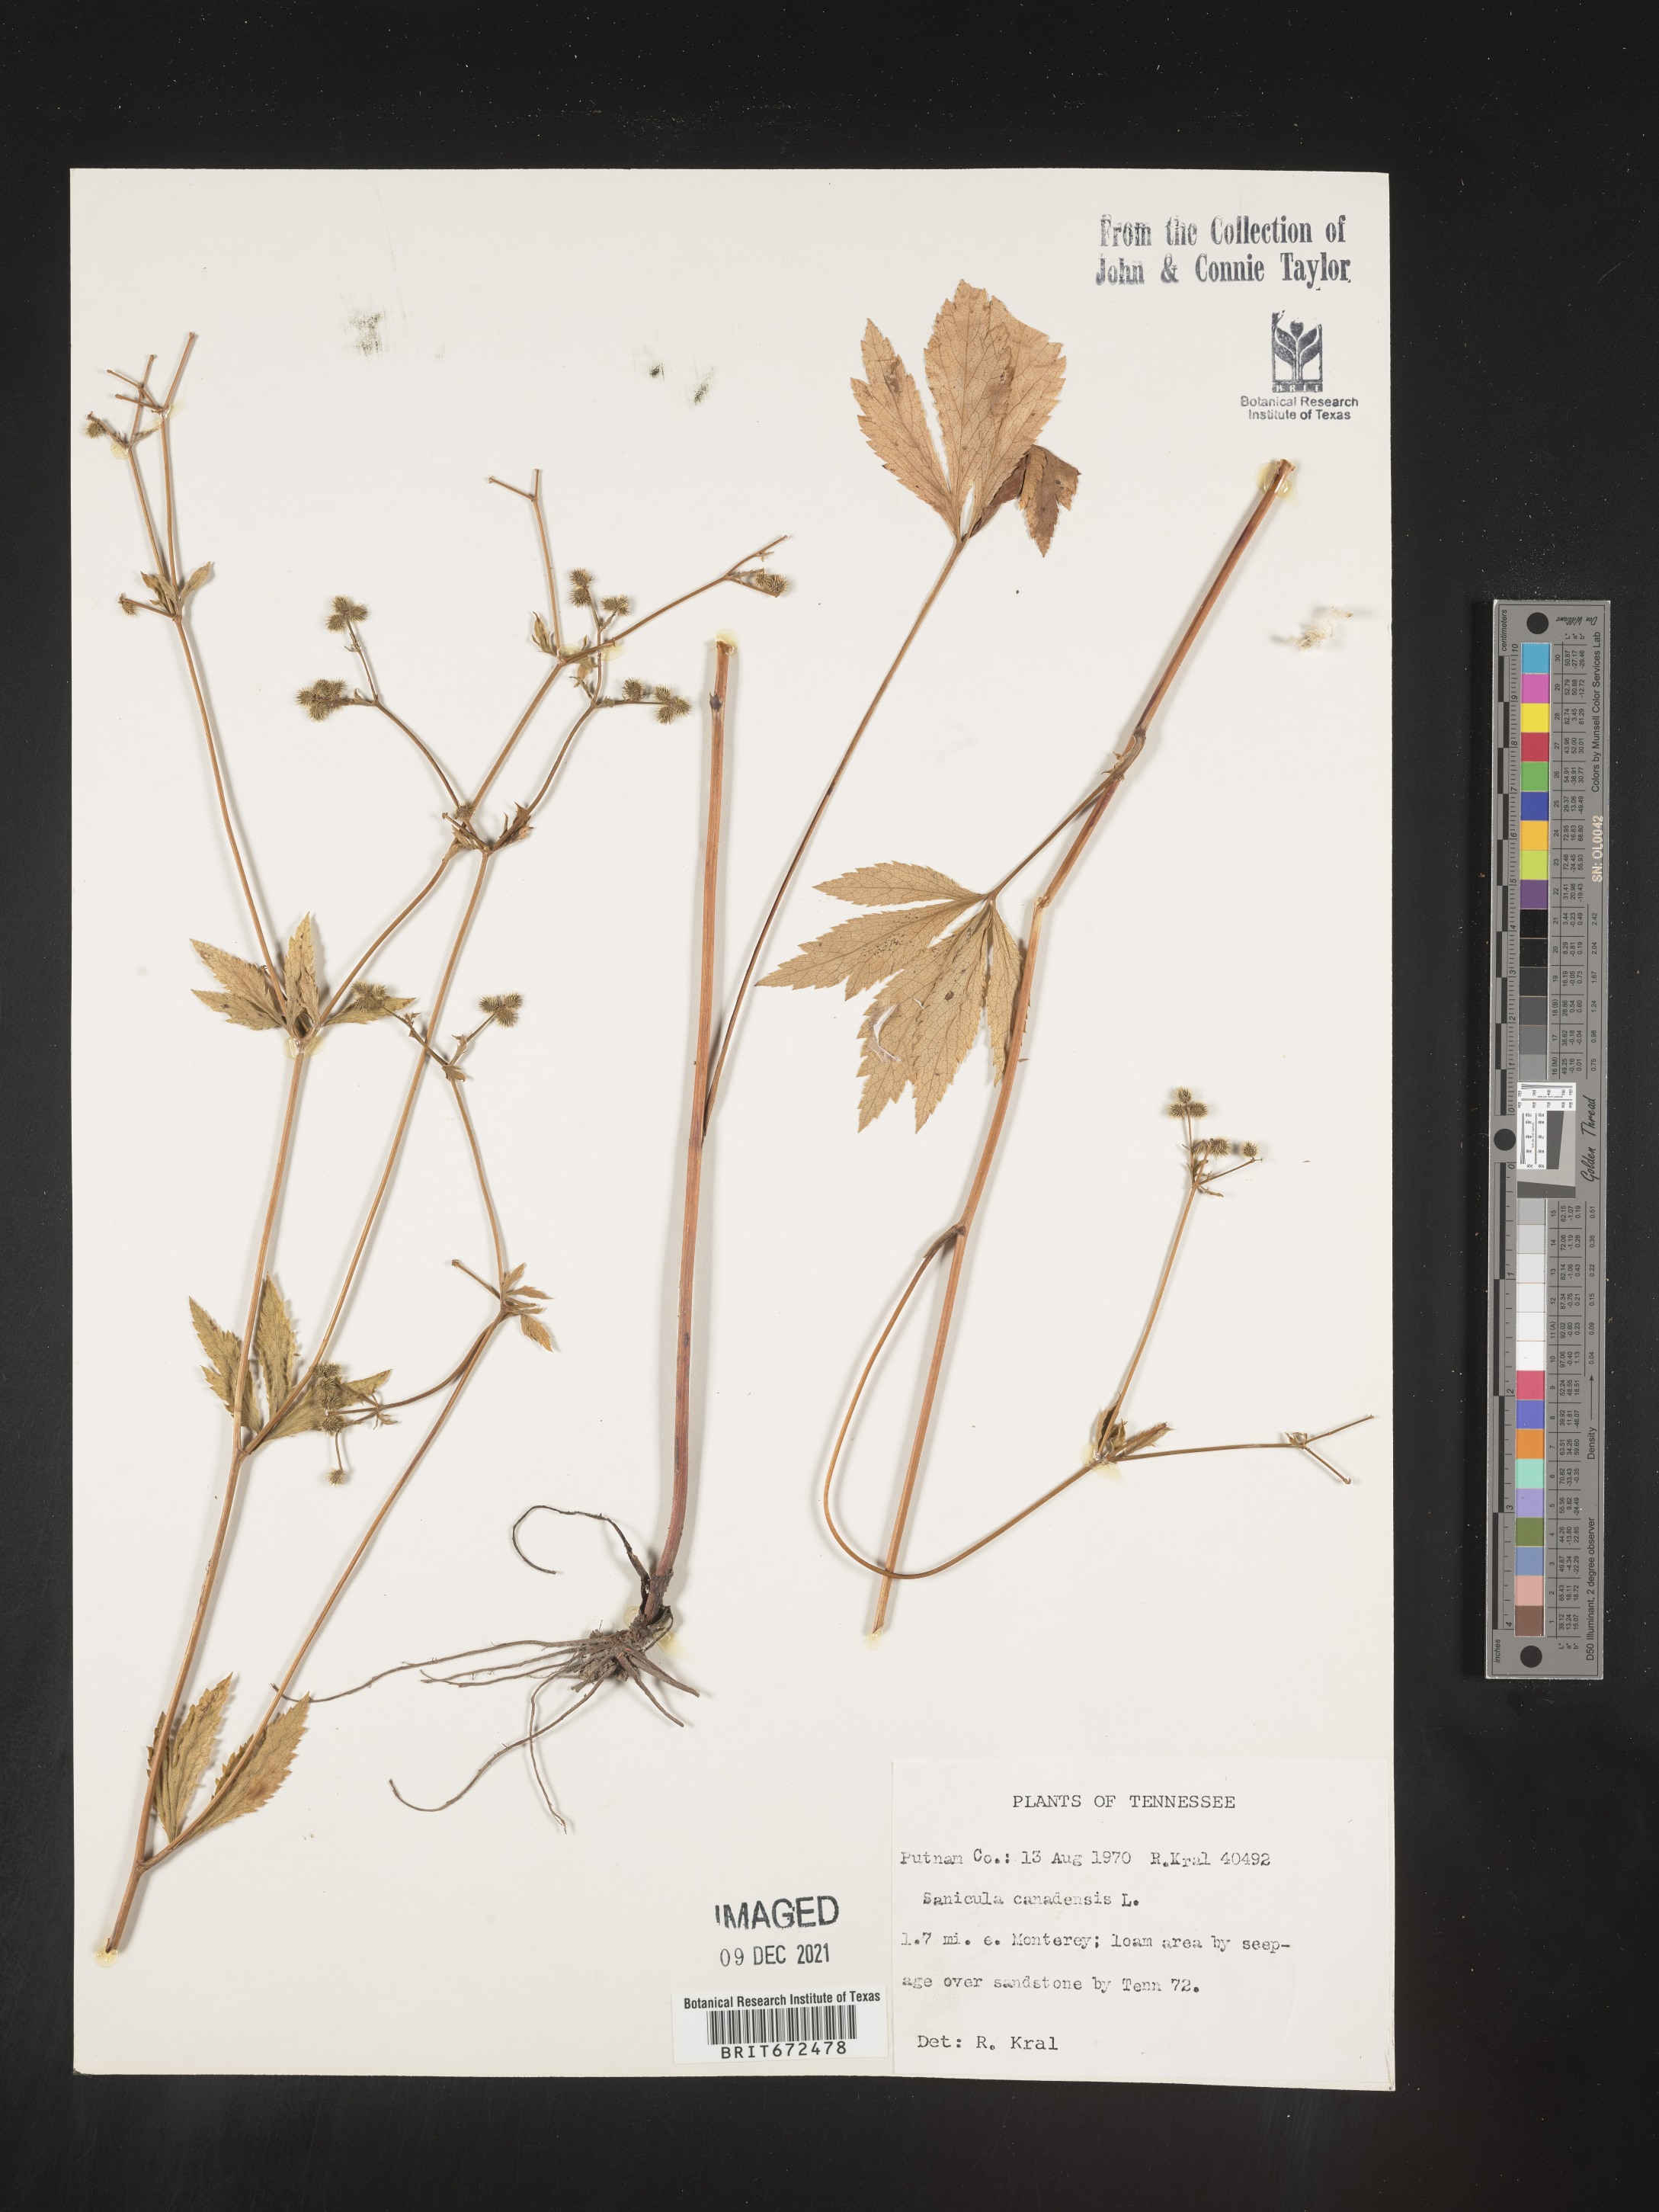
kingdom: Plantae
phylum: Tracheophyta
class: Magnoliopsida
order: Apiales
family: Apiaceae
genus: Sanicula
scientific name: Sanicula canadensis
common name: Canada sanicle
